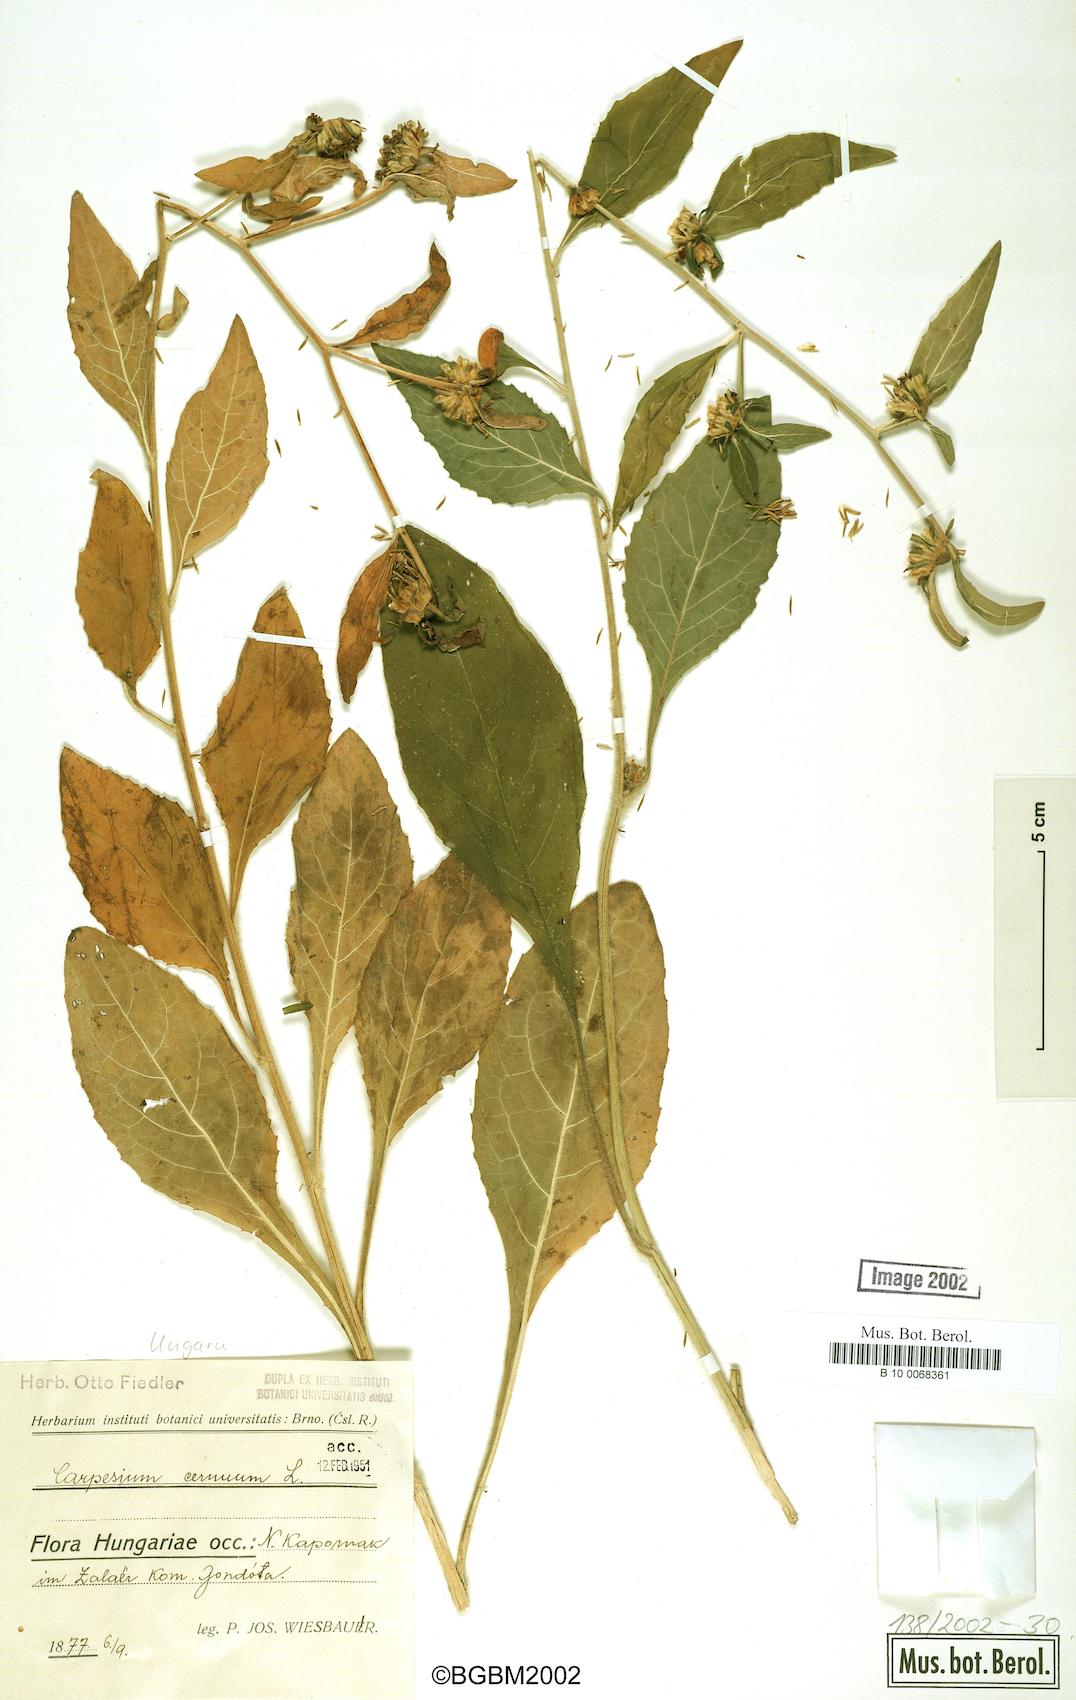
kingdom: Plantae
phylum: Tracheophyta
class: Magnoliopsida
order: Asterales
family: Asteraceae
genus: Carpesium
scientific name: Carpesium cernuum
